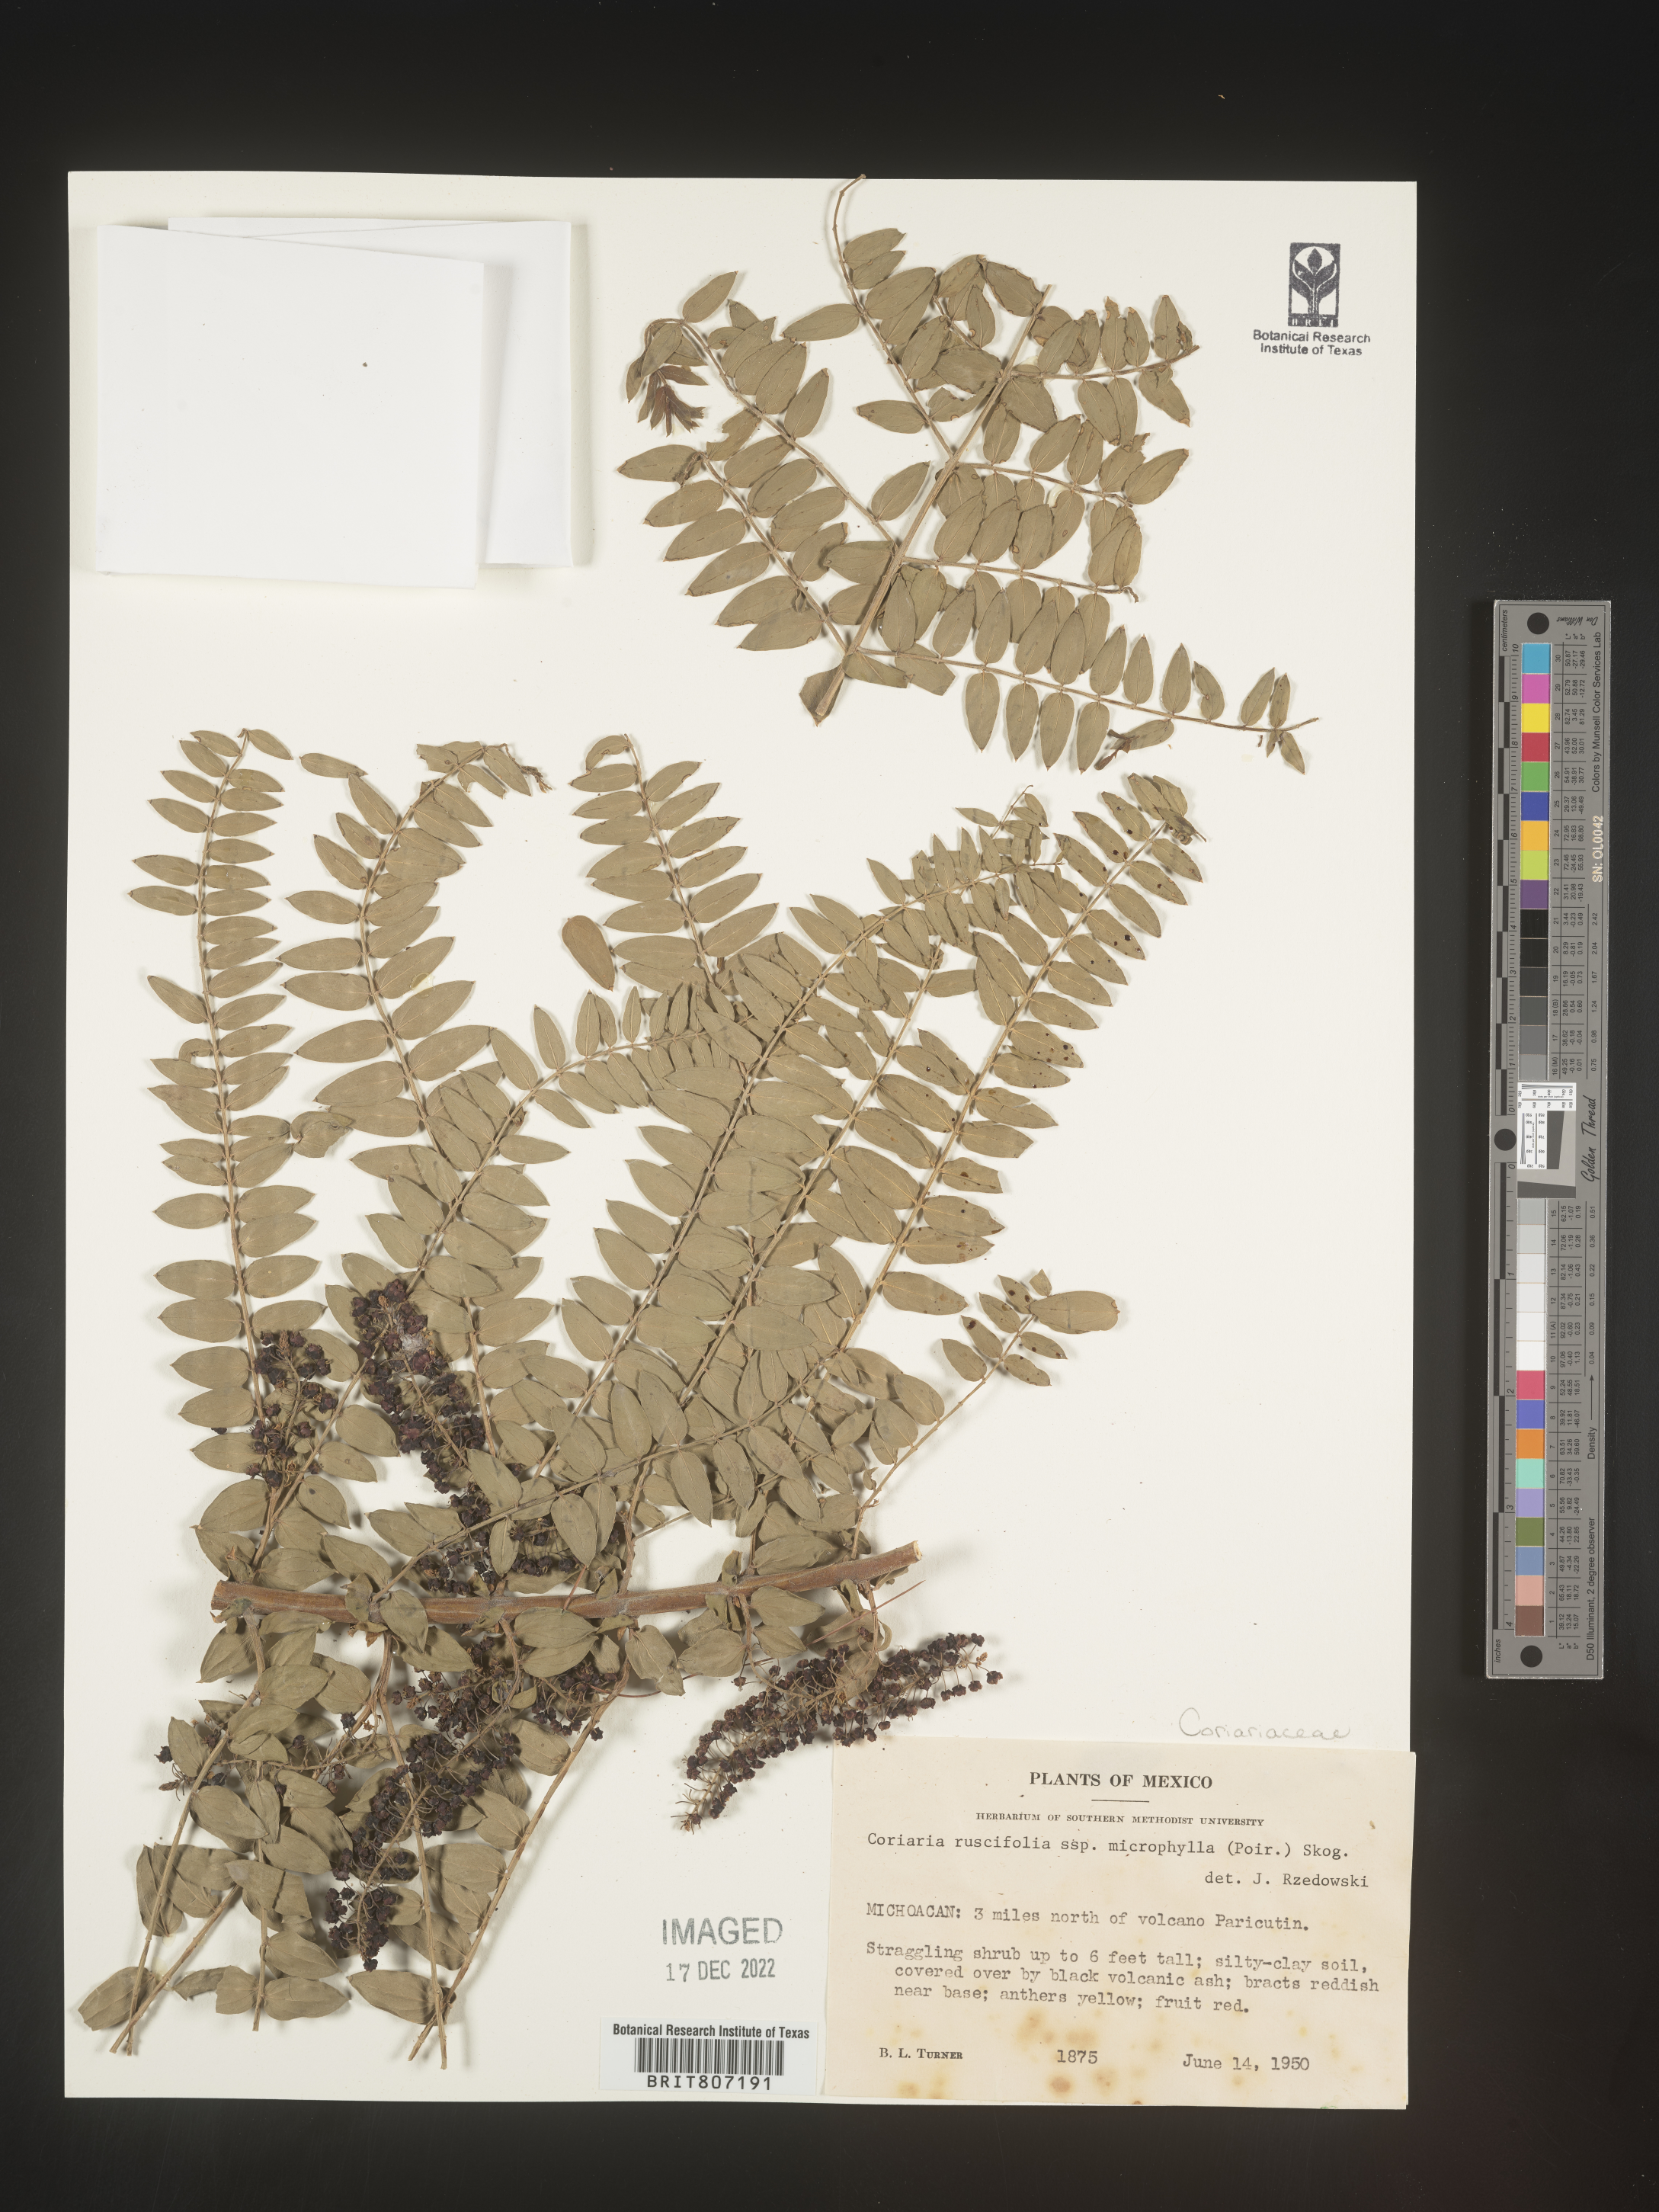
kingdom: Plantae
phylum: Tracheophyta
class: Magnoliopsida
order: Cucurbitales
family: Coriariaceae
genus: Coriaria
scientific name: Coriaria
